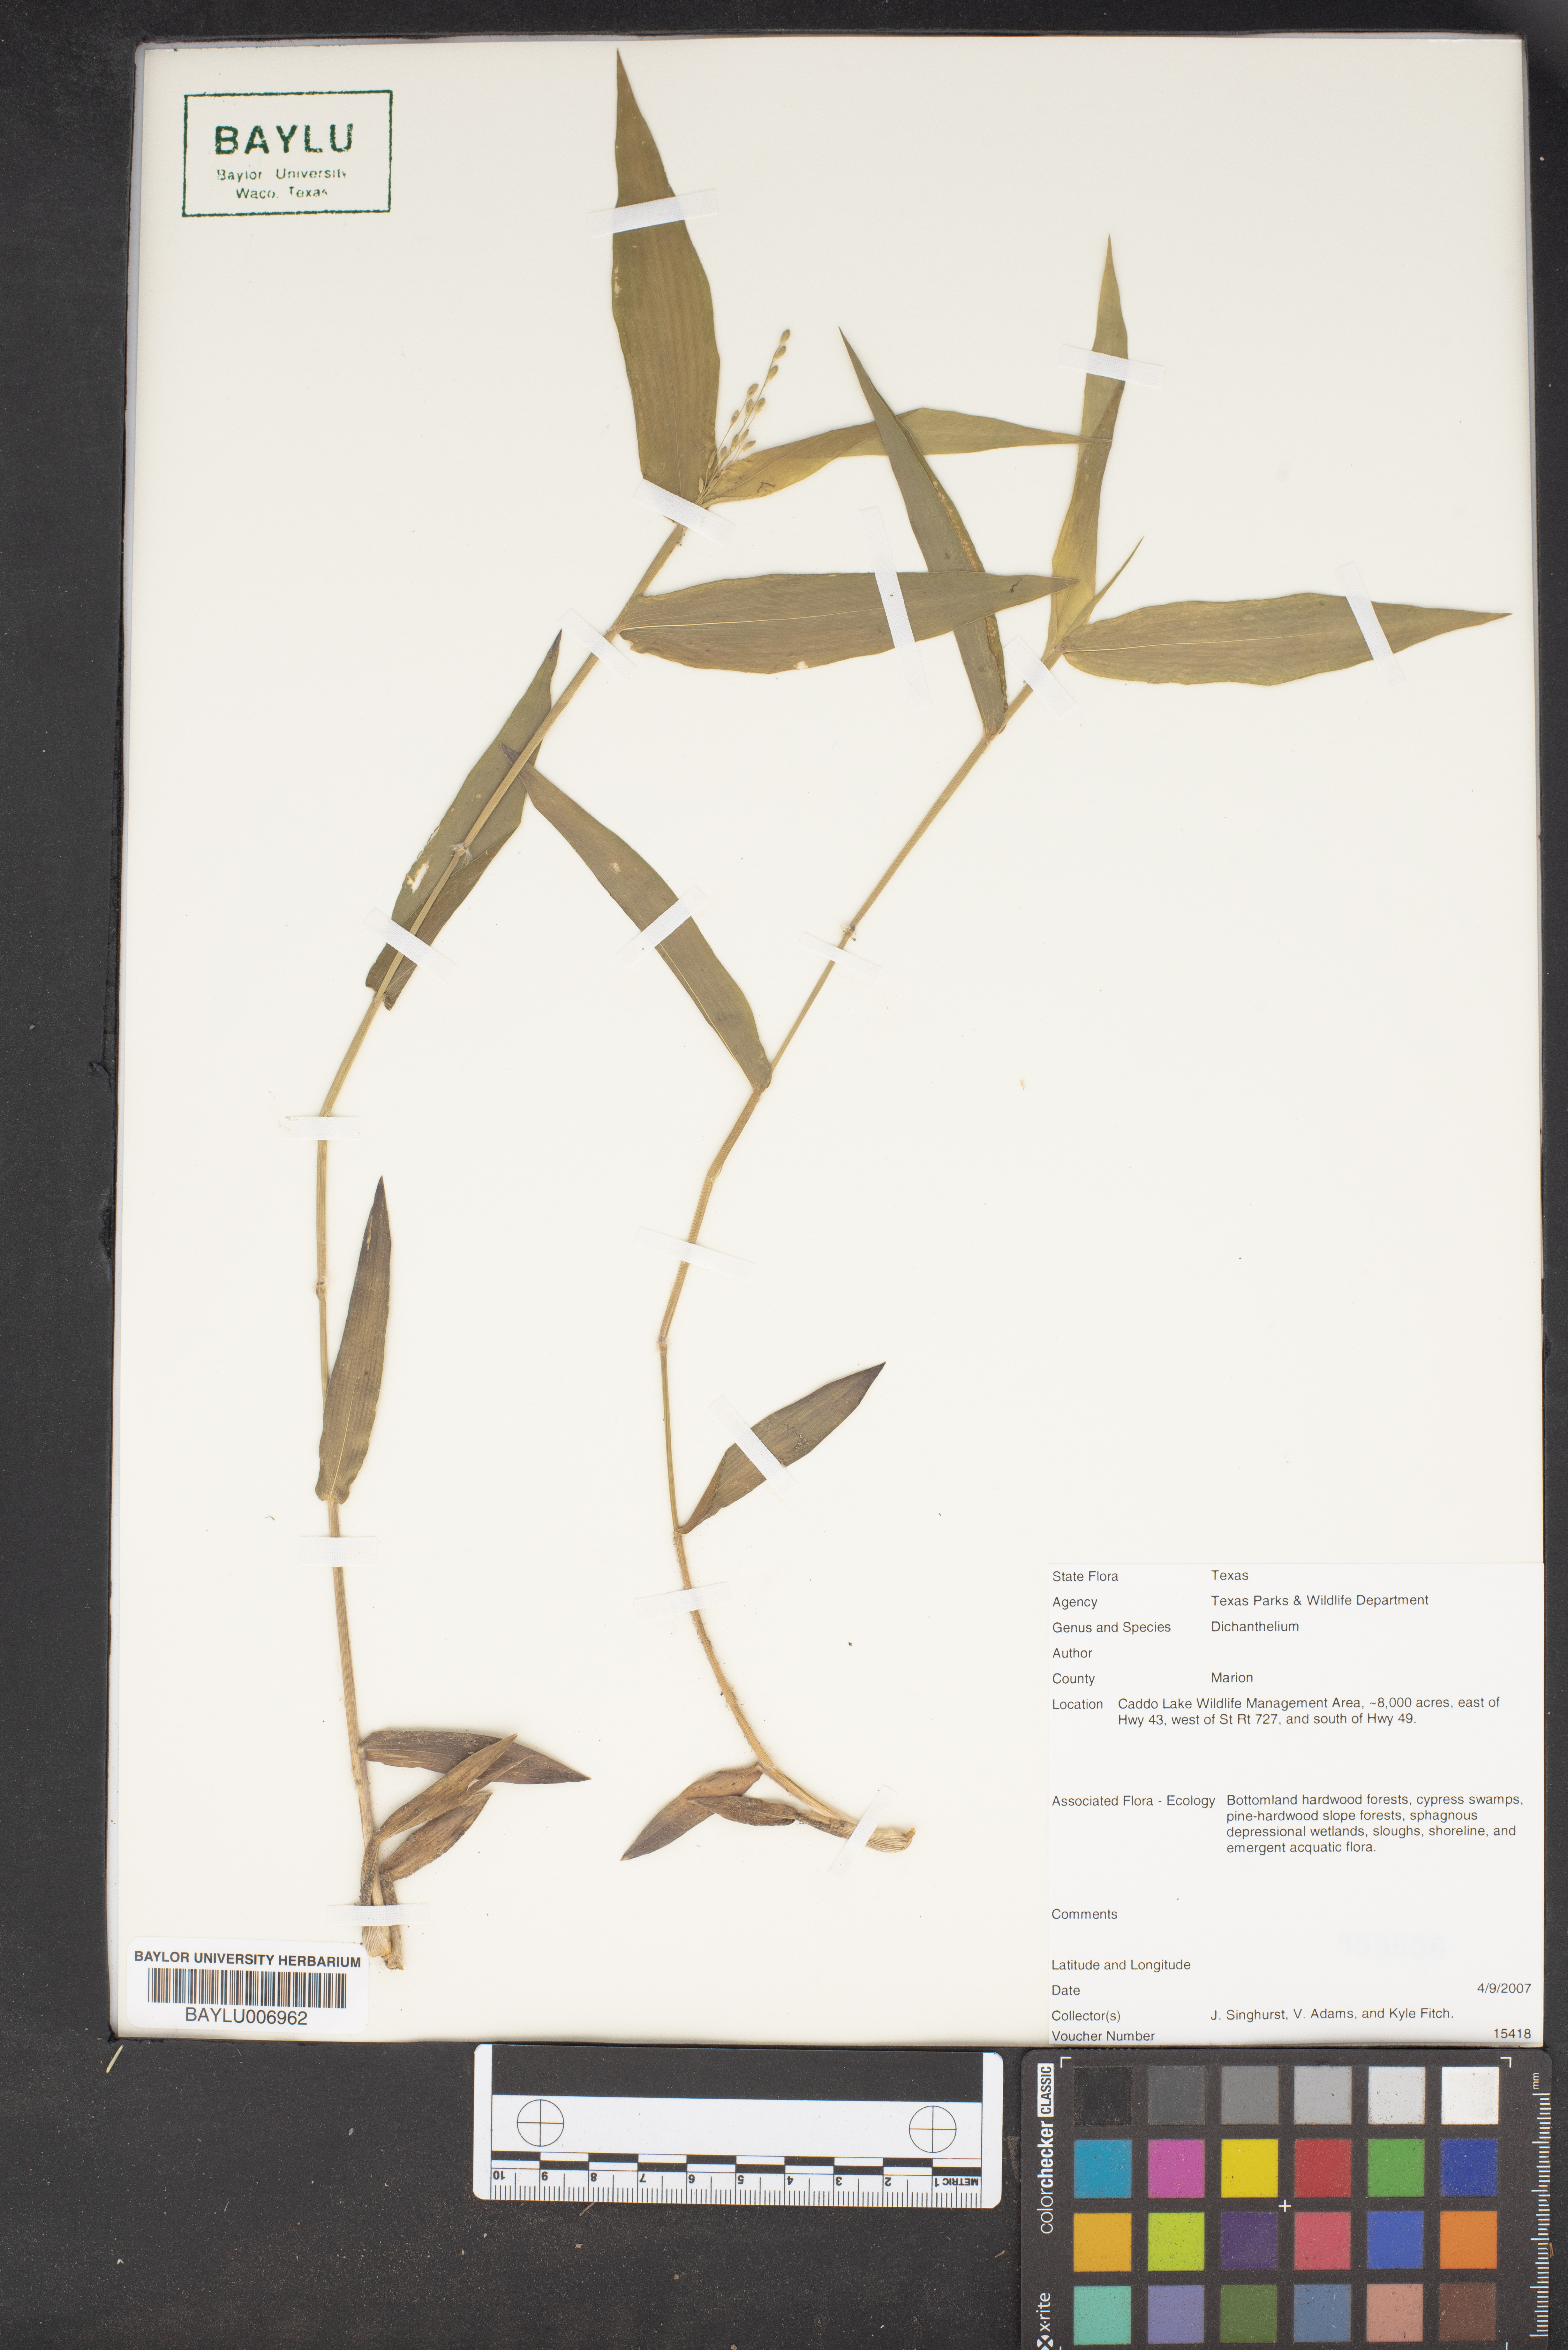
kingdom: Plantae
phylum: Tracheophyta
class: Liliopsida
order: Poales
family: Poaceae
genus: Dichanthelium
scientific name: Dichanthelium
